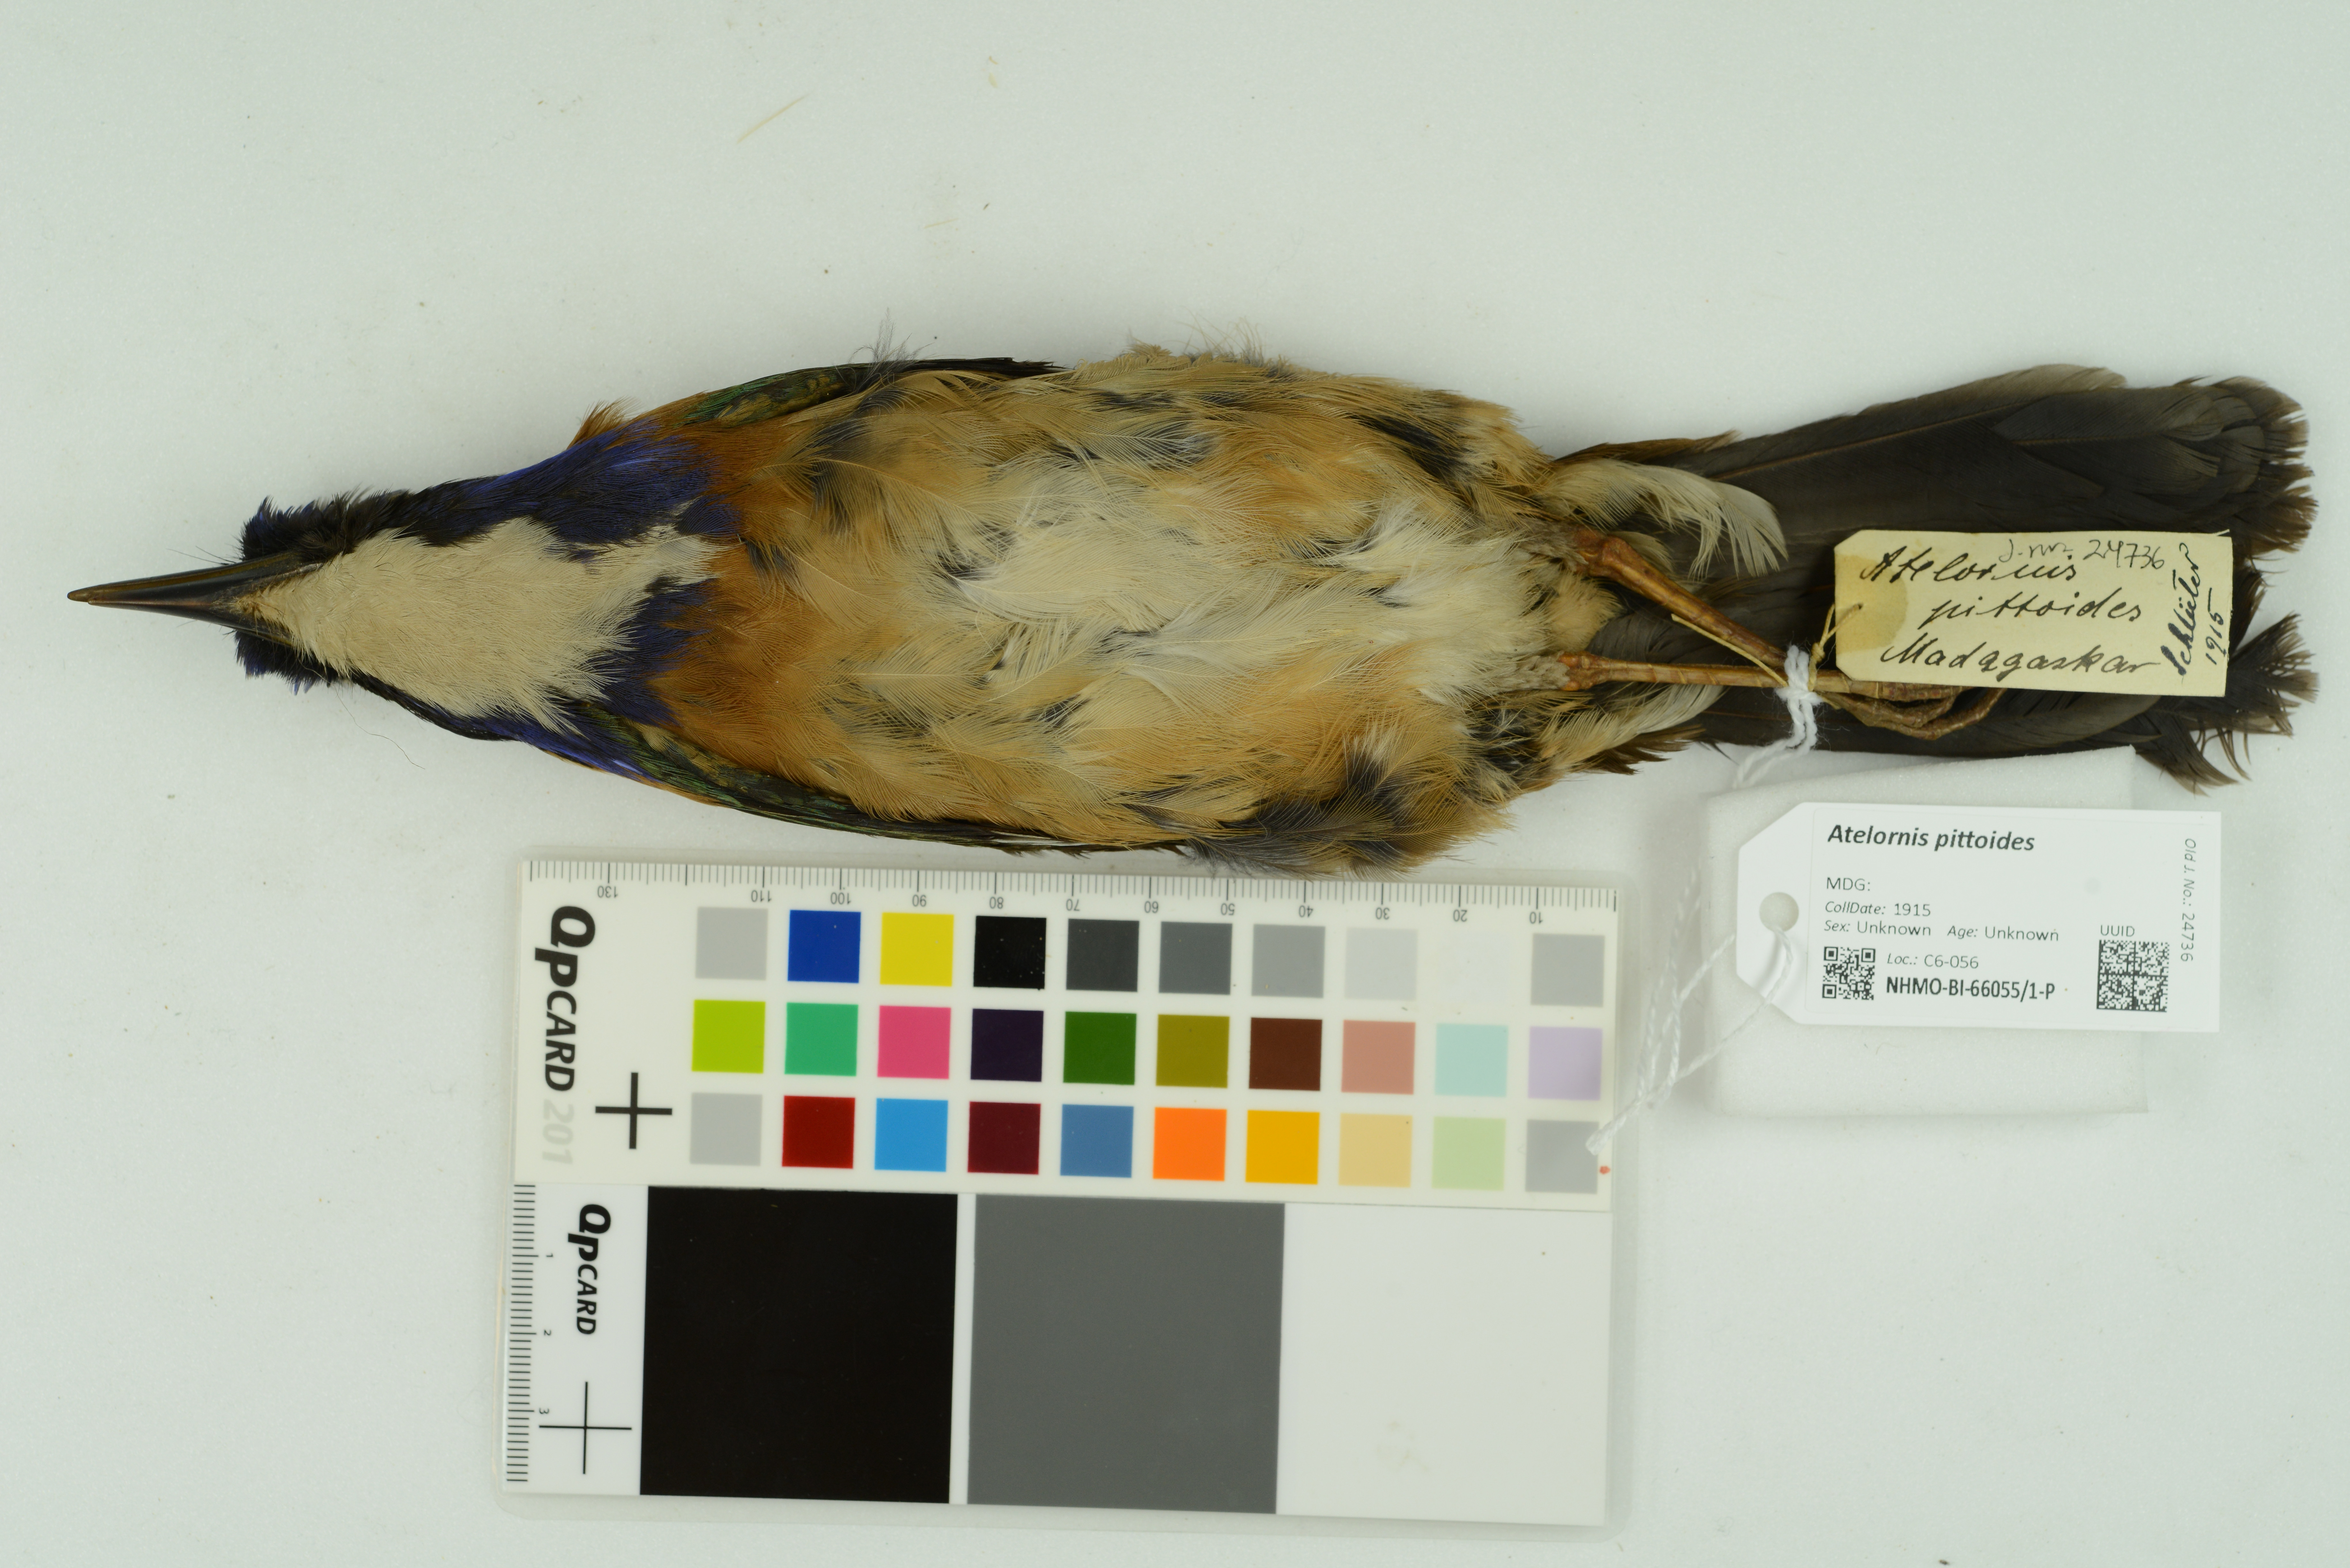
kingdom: Animalia
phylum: Chordata
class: Aves
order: Coraciiformes
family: Brachypteraciidae
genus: Atelornis
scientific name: Atelornis pittoides
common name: Pitta-like ground-roller
